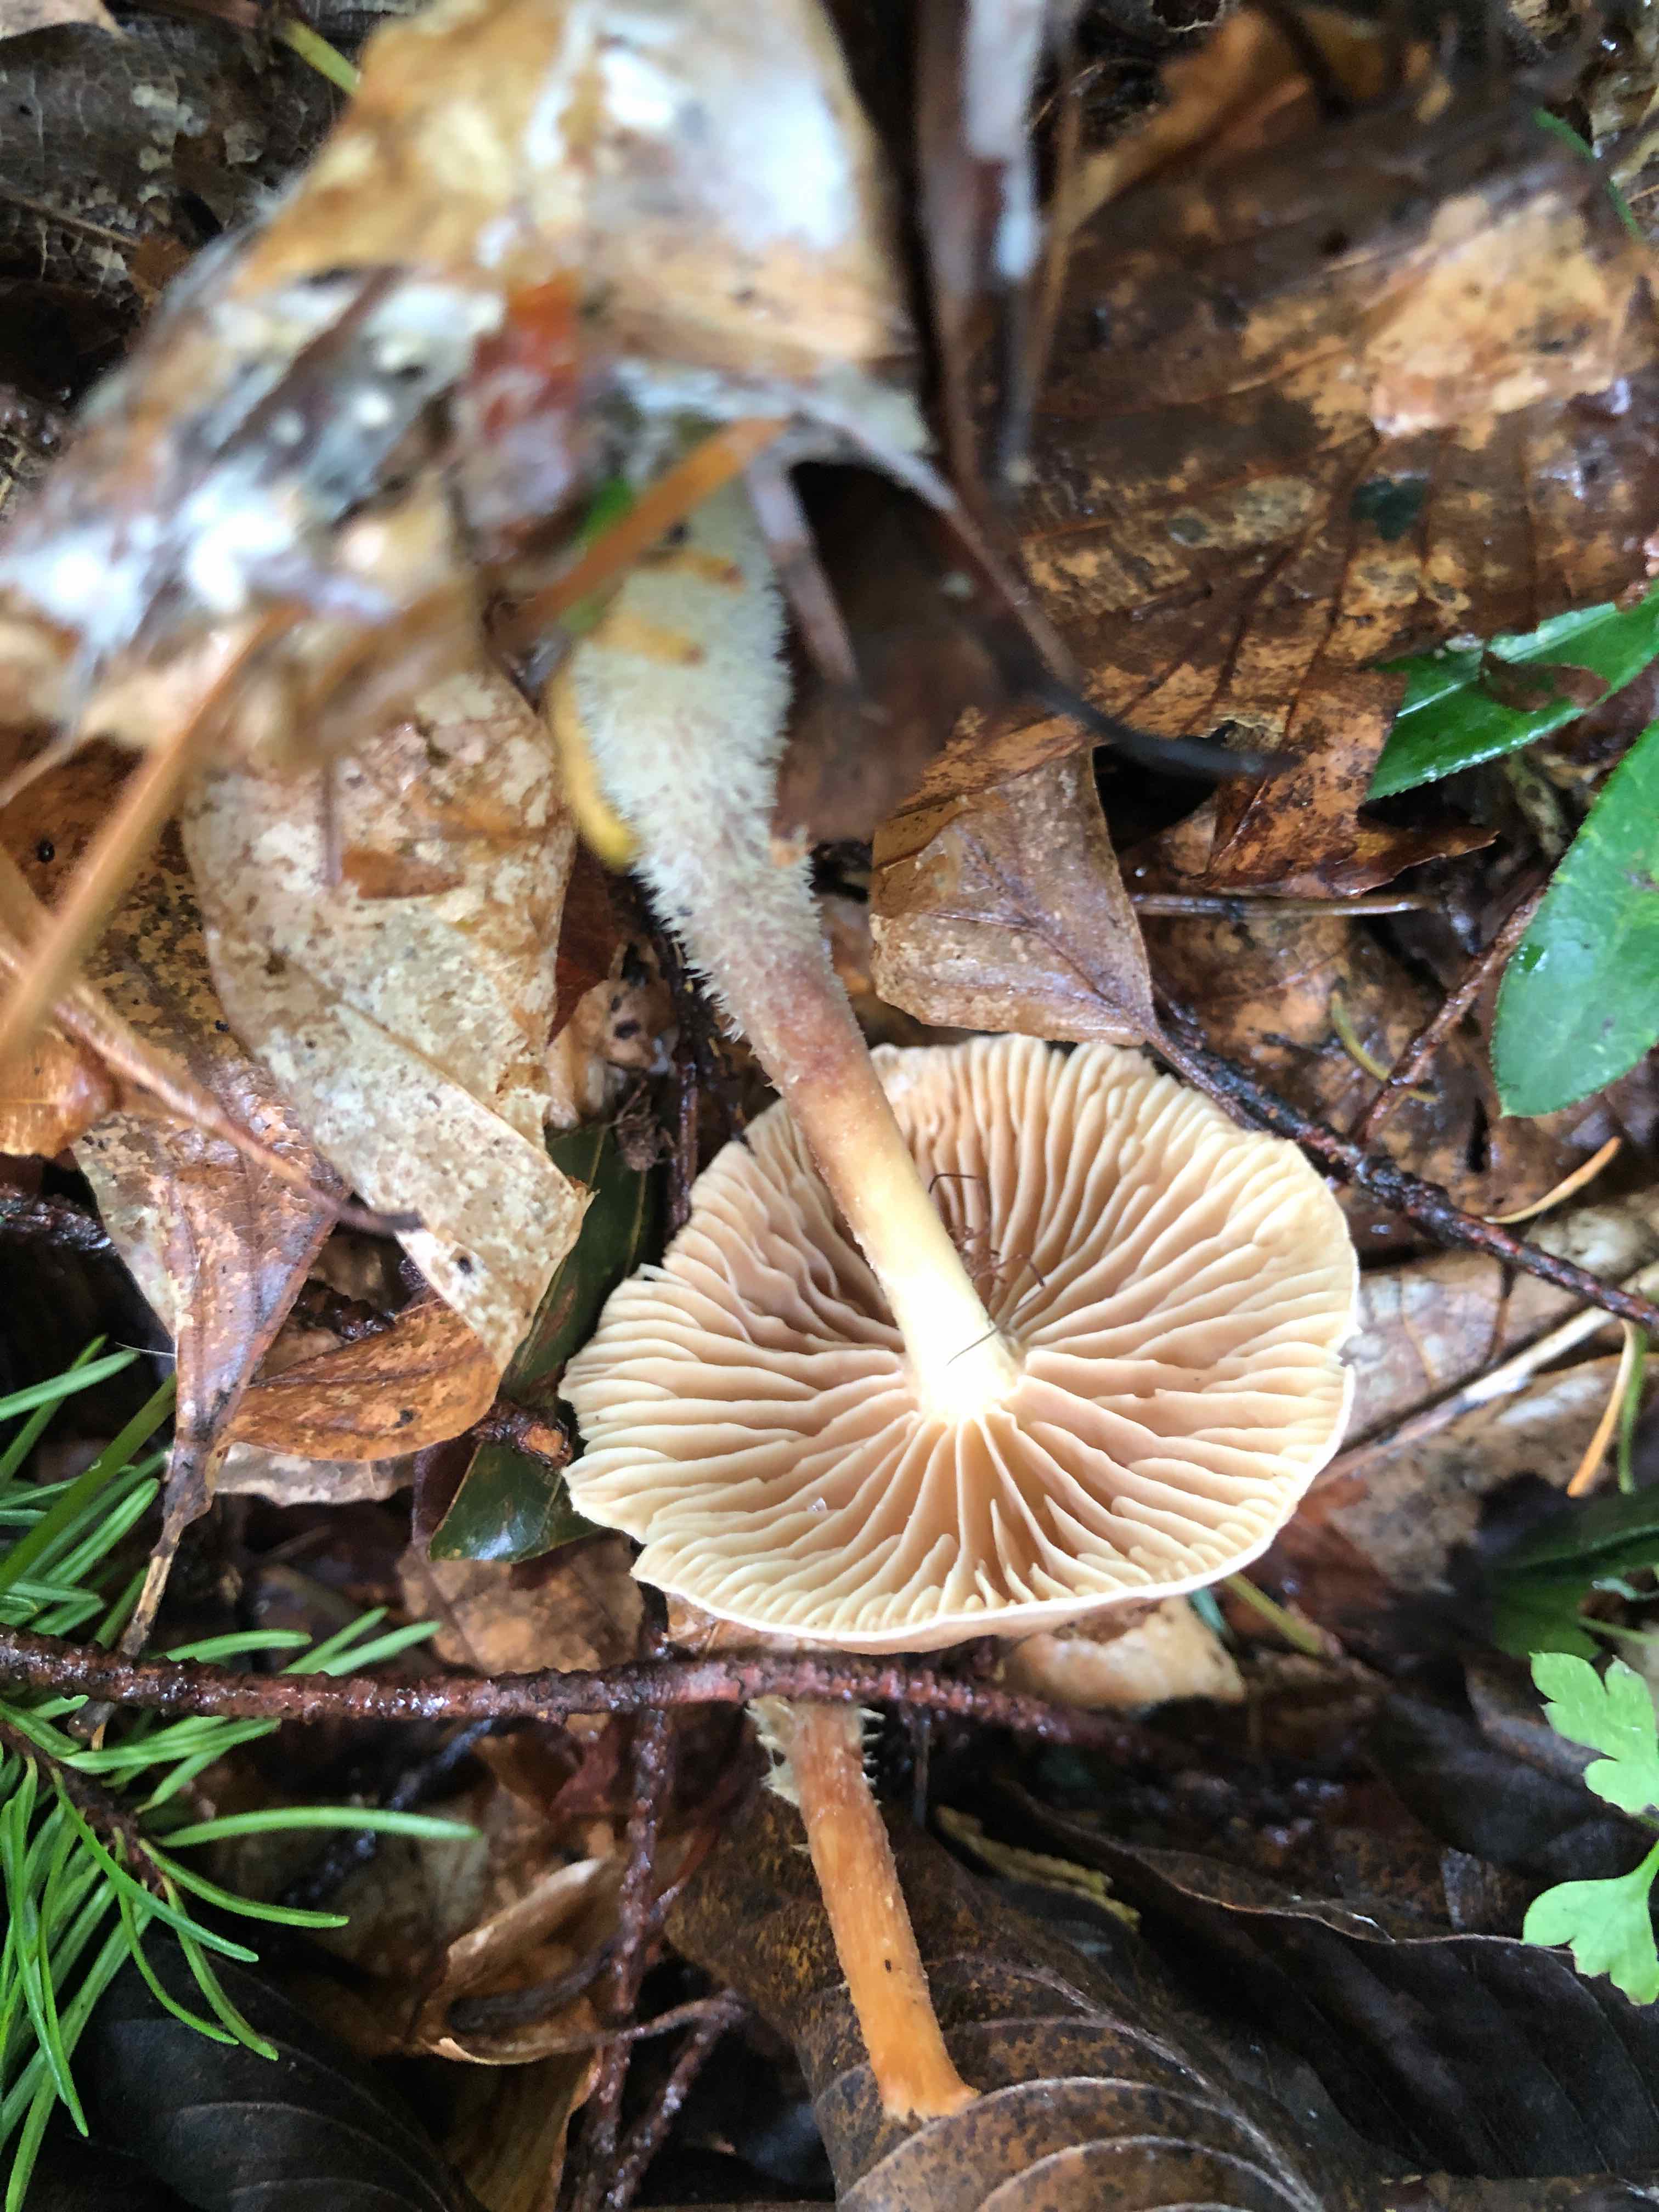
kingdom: Fungi
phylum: Basidiomycota
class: Agaricomycetes
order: Agaricales
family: Omphalotaceae
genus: Collybiopsis
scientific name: Collybiopsis peronata
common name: bestøvlet fladhat
